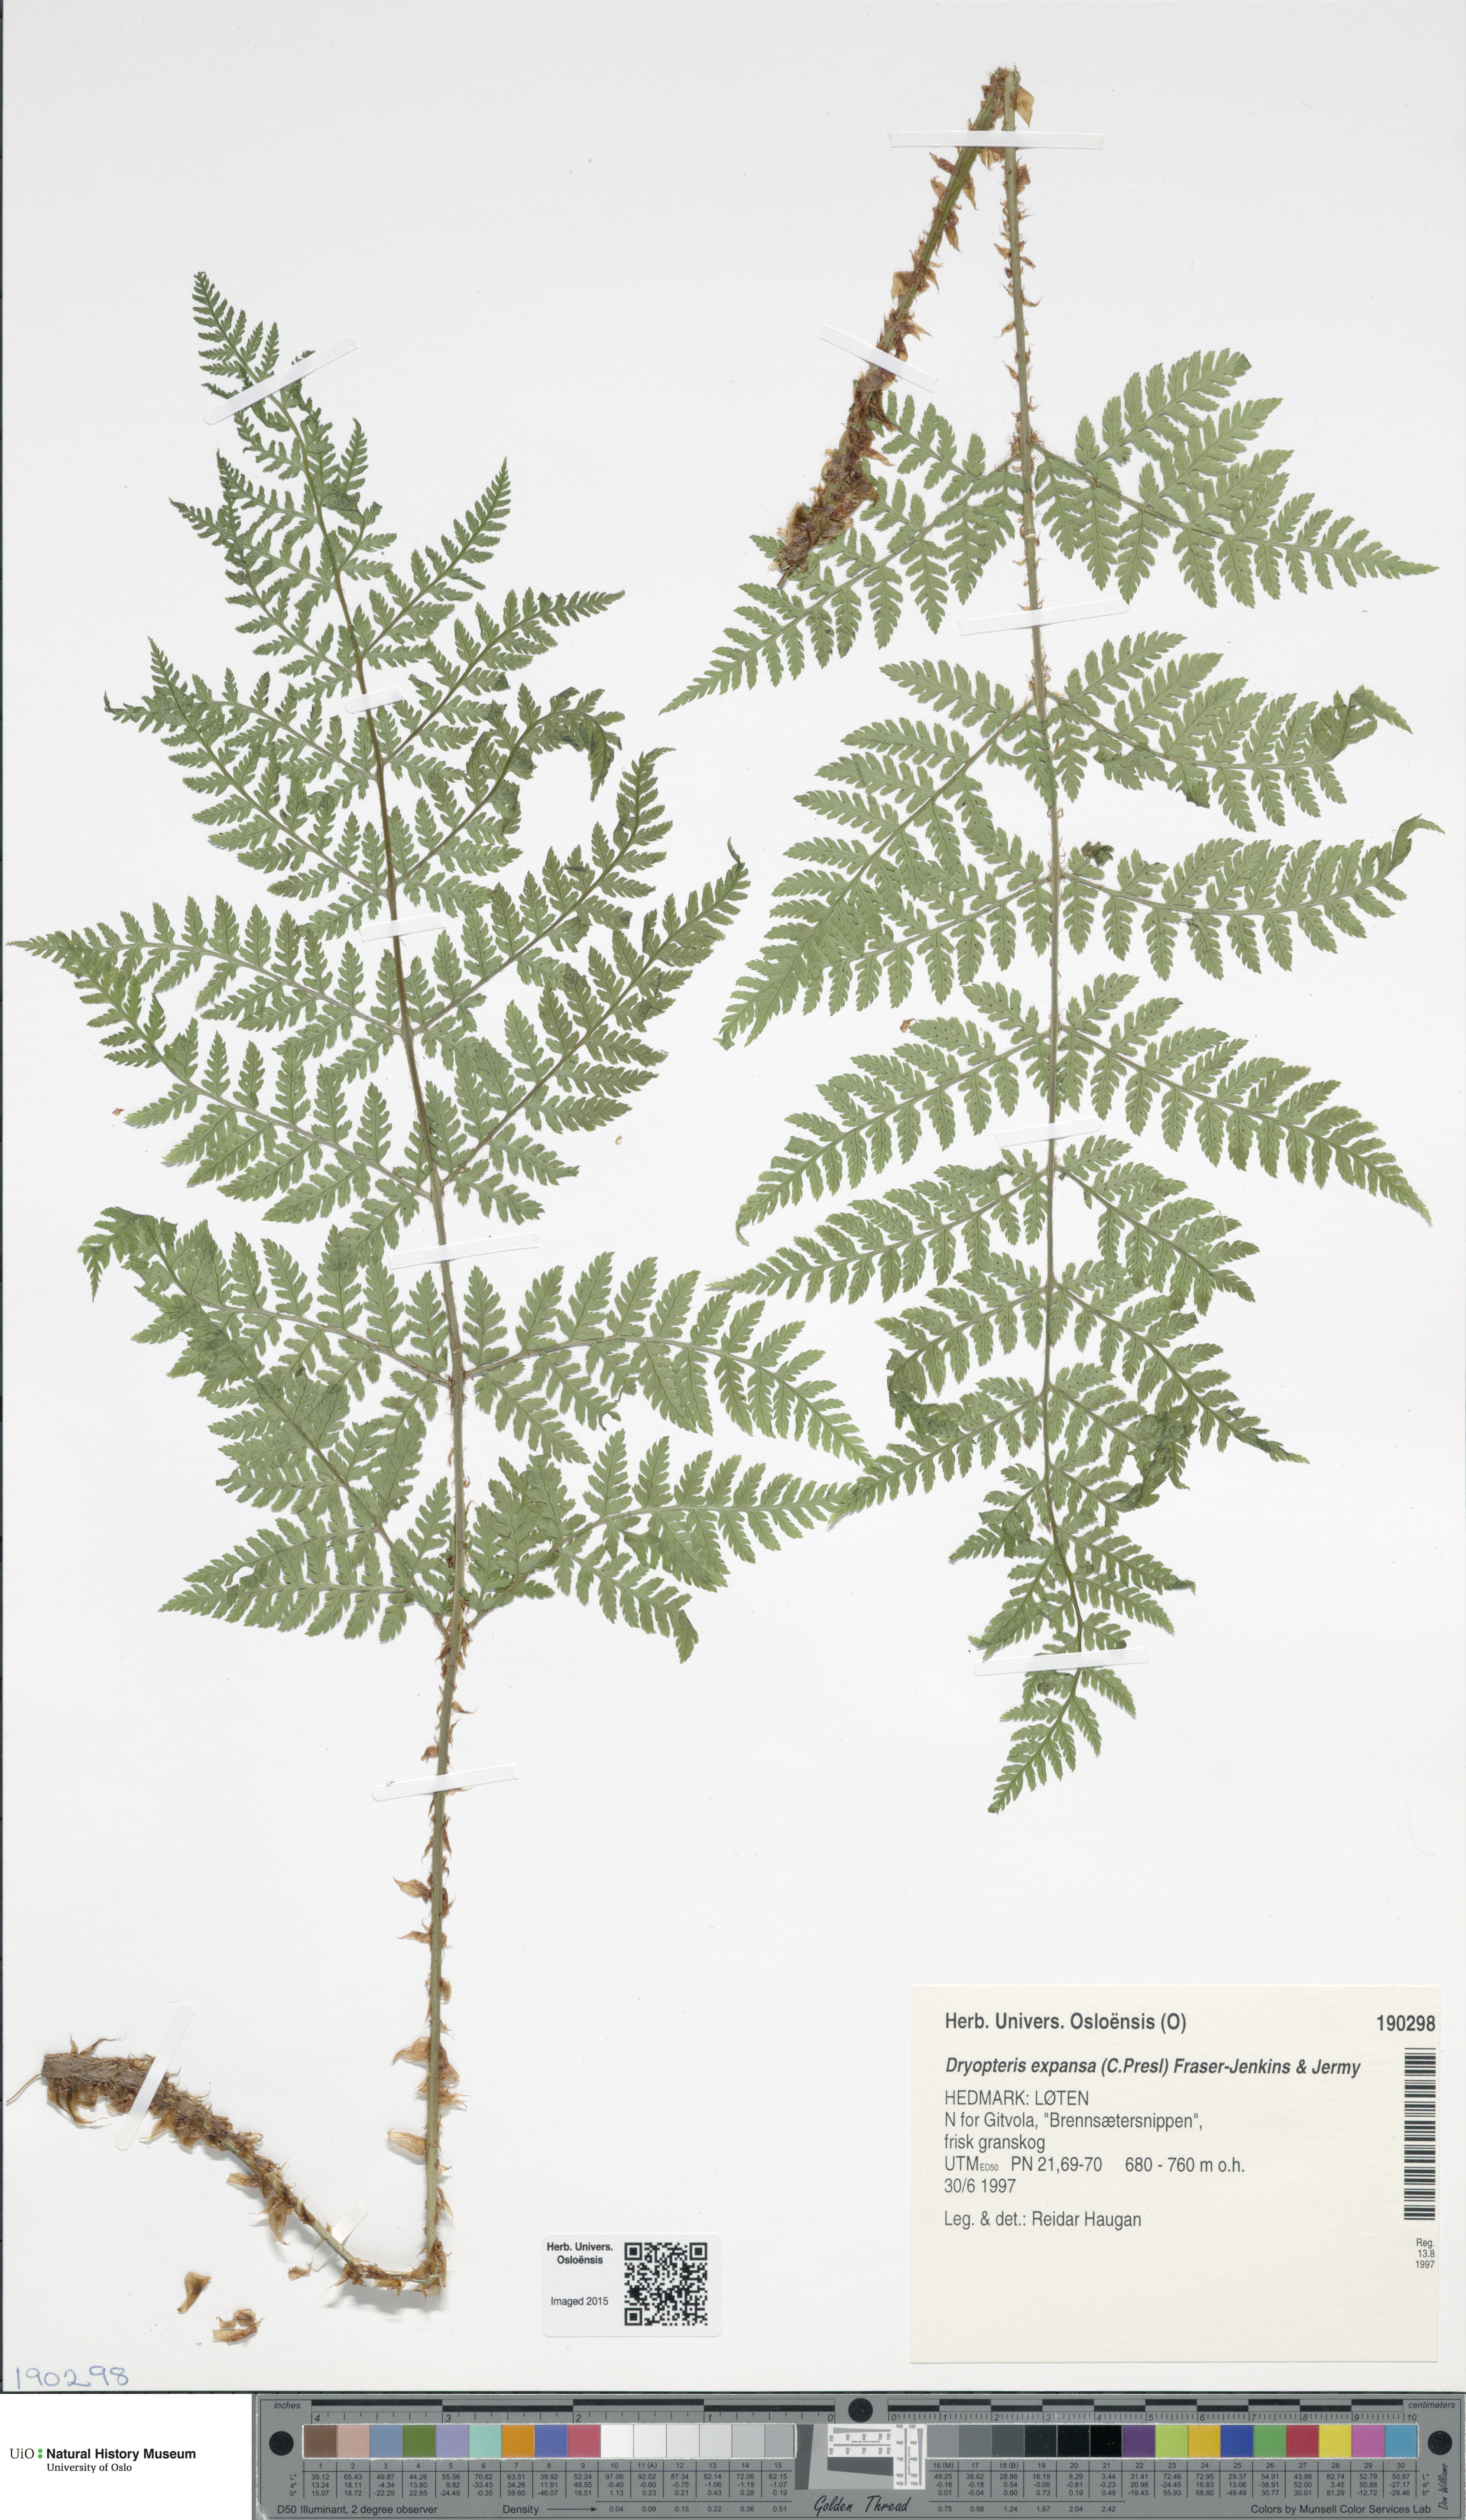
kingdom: Plantae
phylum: Tracheophyta
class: Polypodiopsida
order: Polypodiales
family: Dryopteridaceae
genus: Dryopteris
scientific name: Dryopteris expansa
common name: Northern buckler fern
